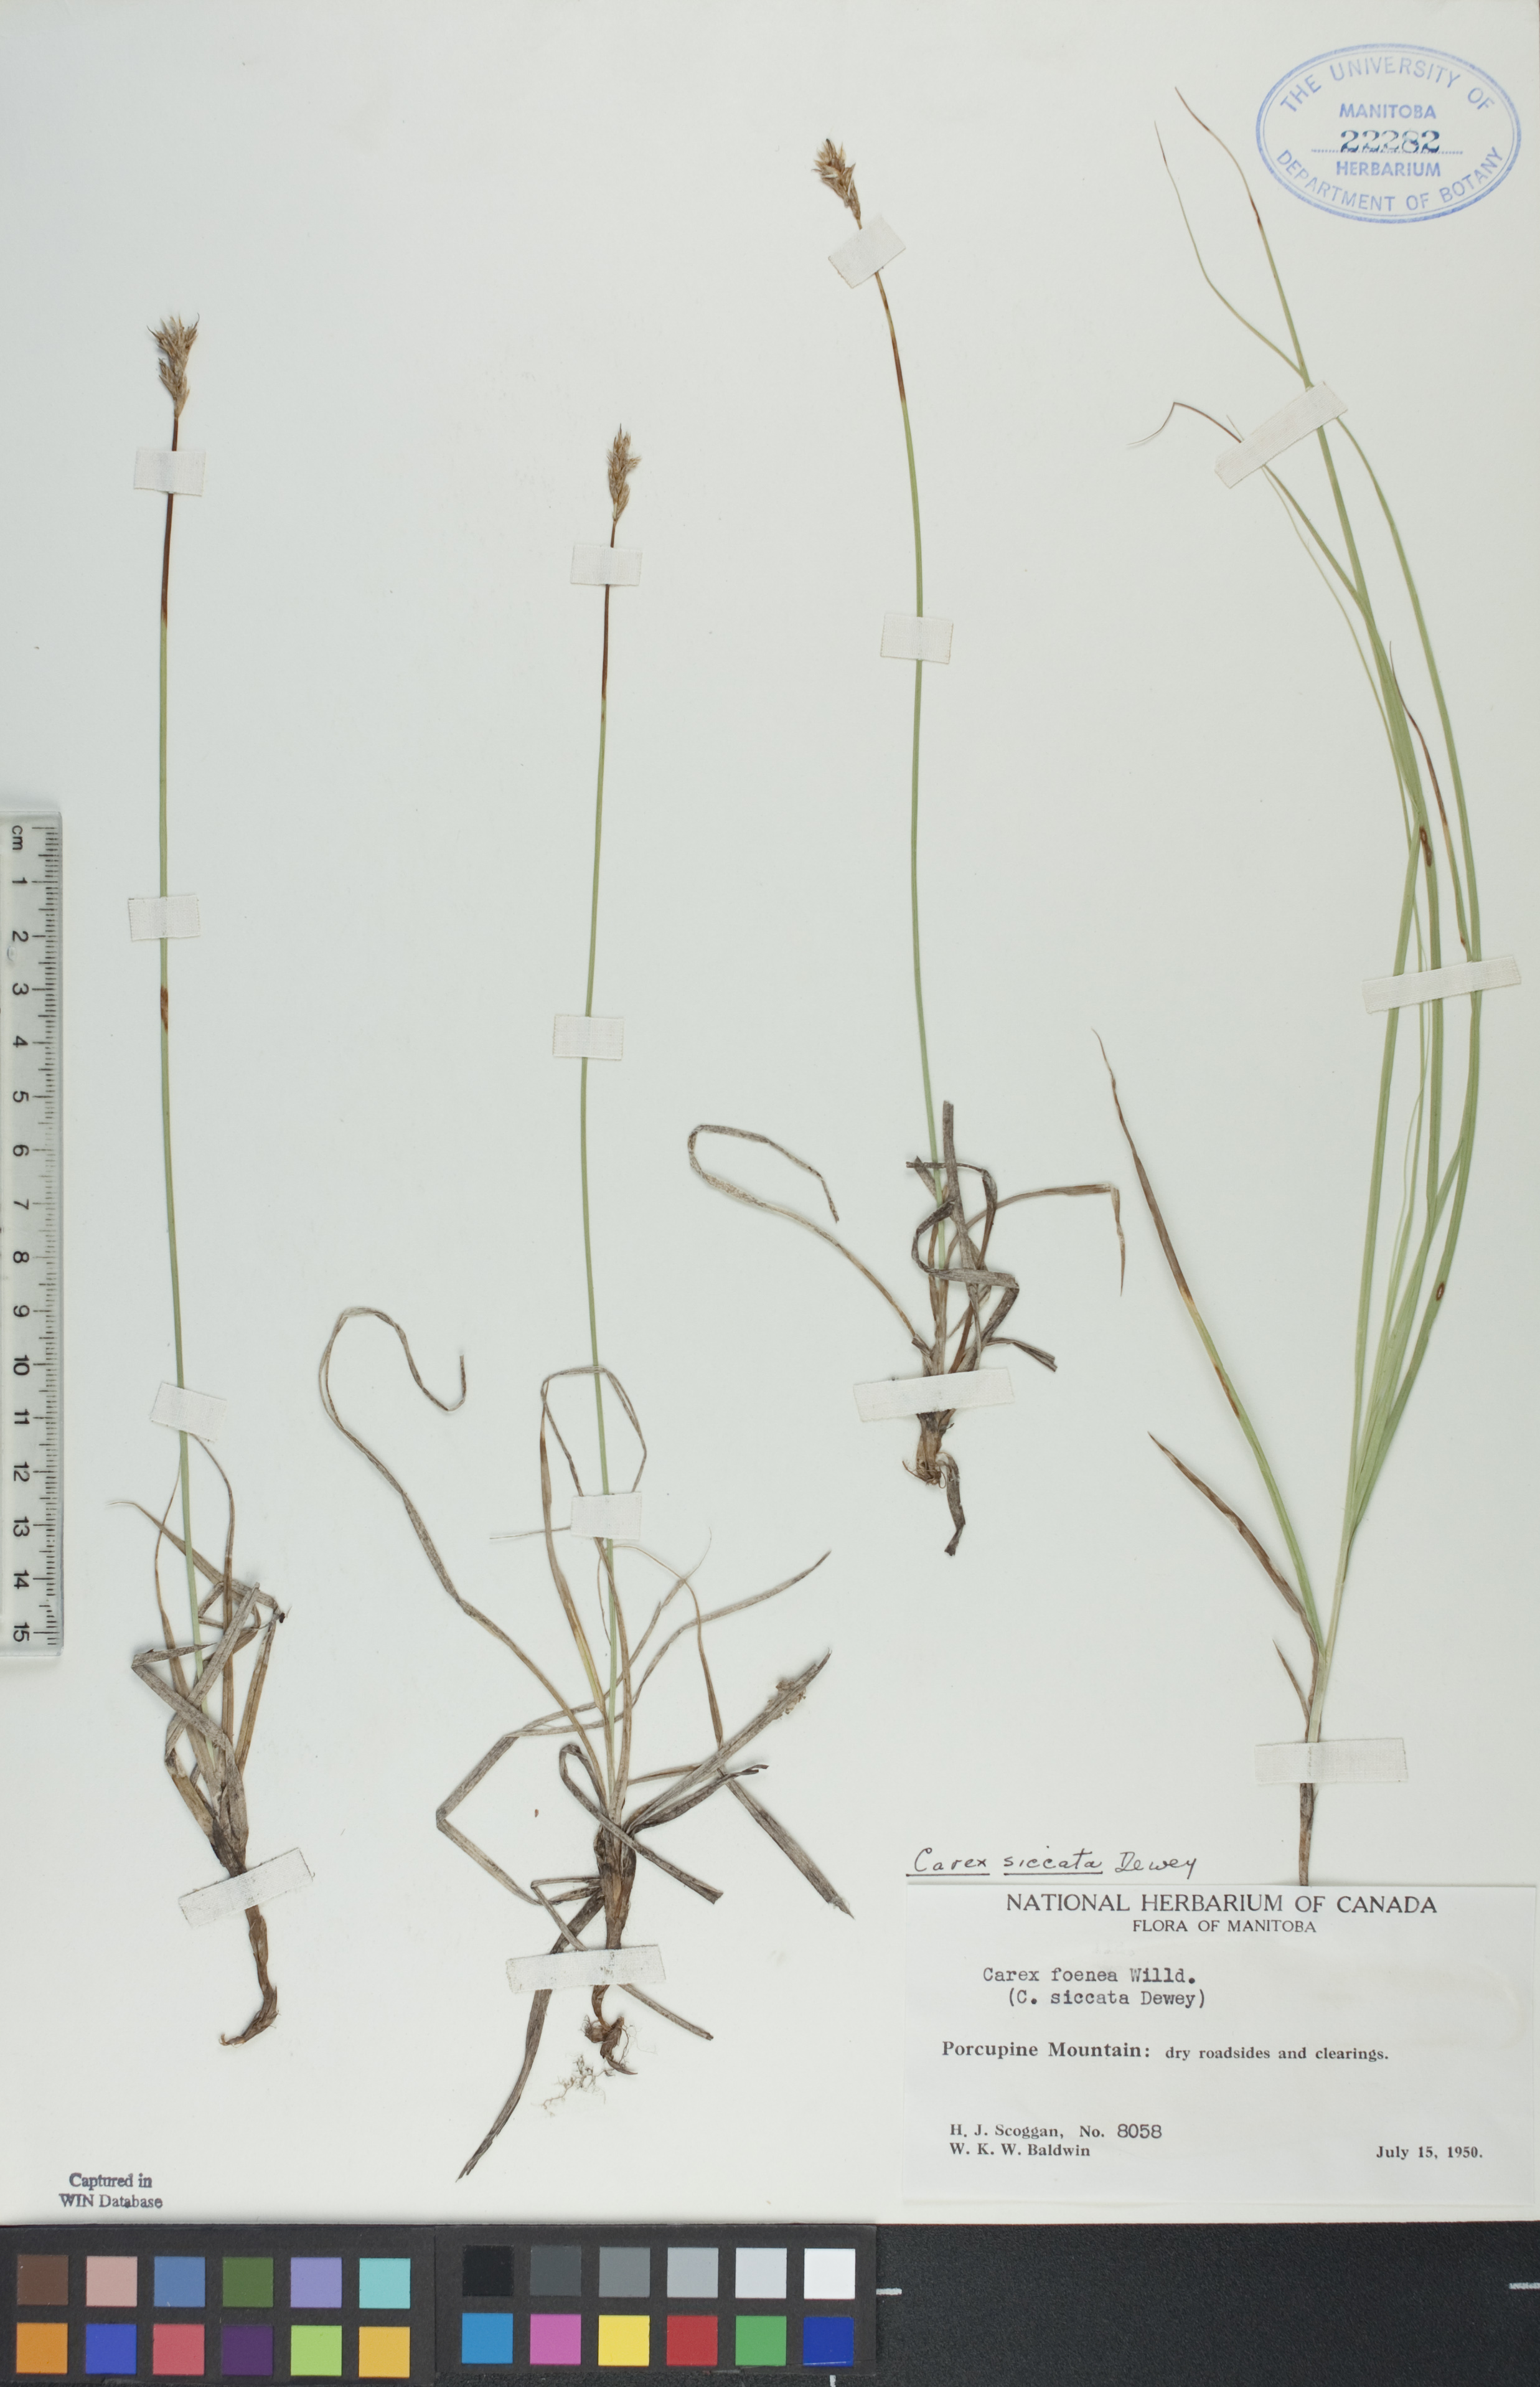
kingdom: Plantae
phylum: Tracheophyta
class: Liliopsida
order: Poales
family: Cyperaceae
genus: Carex
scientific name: Carex siccata
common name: Dry sedge
